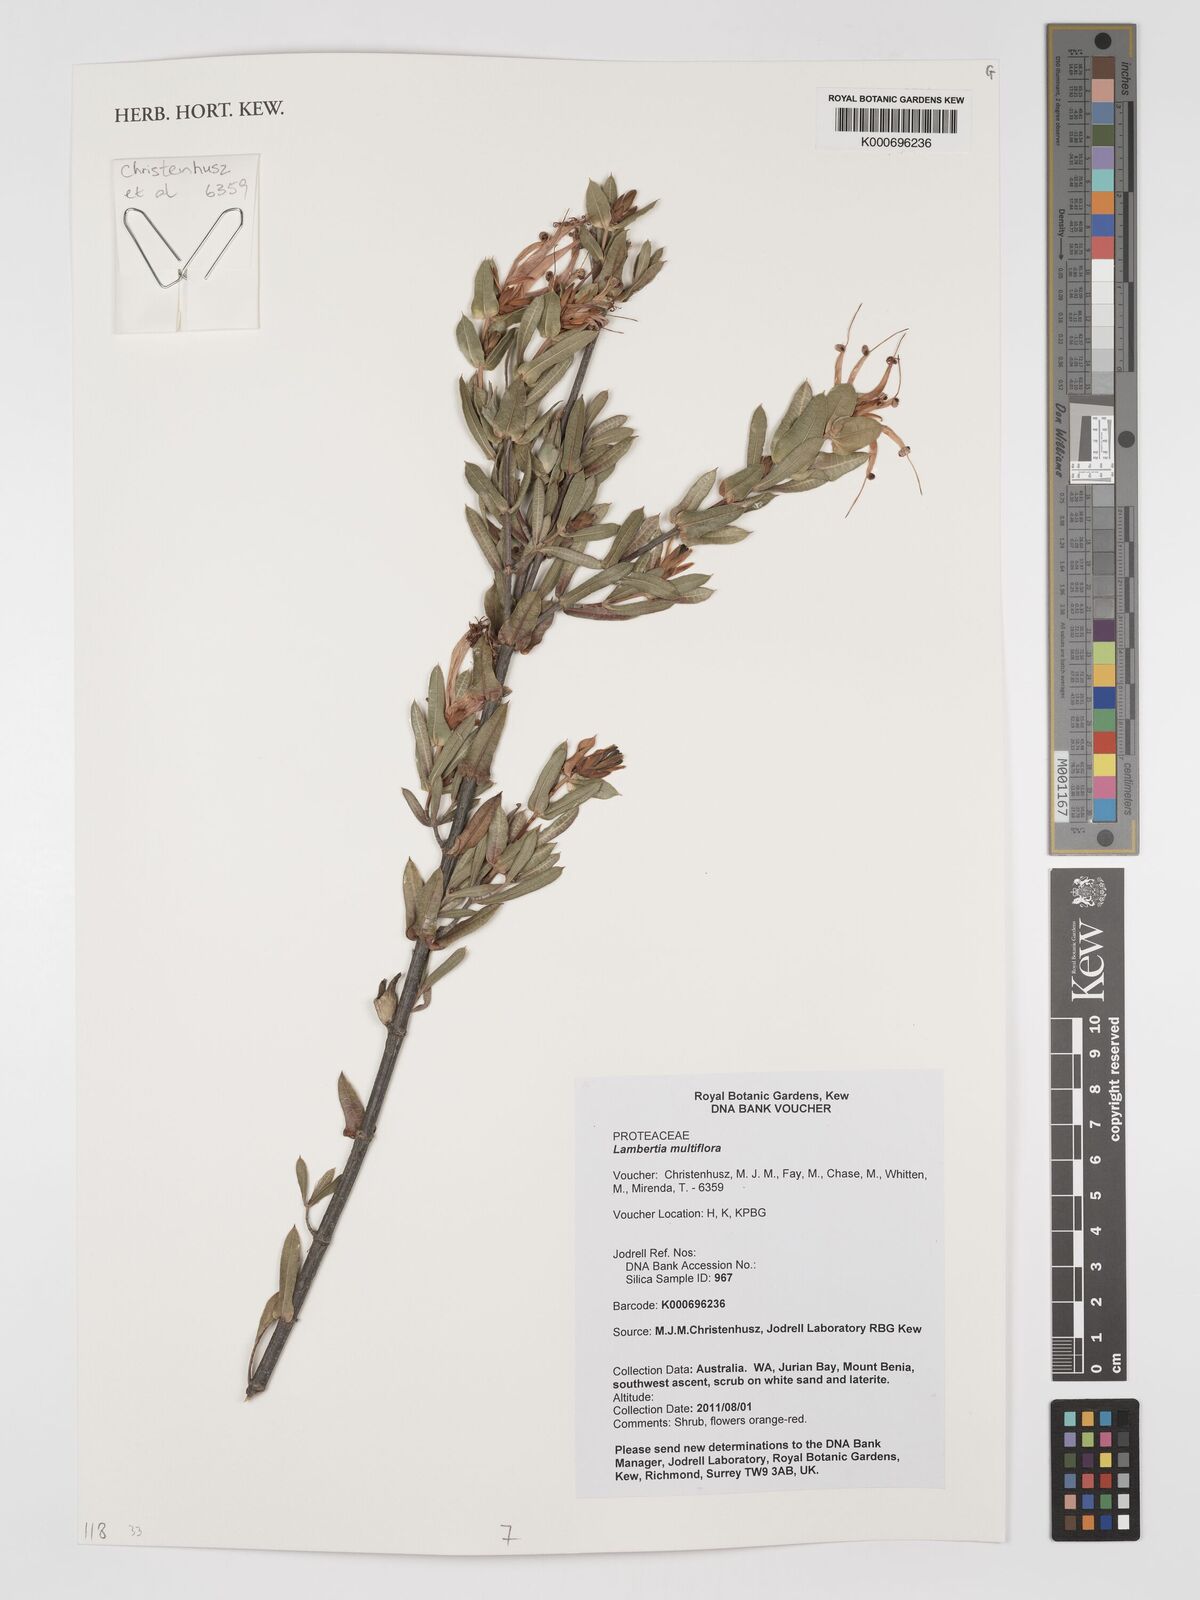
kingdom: Plantae
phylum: Tracheophyta
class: Magnoliopsida
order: Proteales
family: Proteaceae
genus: Lambertia
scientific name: Lambertia multiflora
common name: Many-flowered honeysuckle
